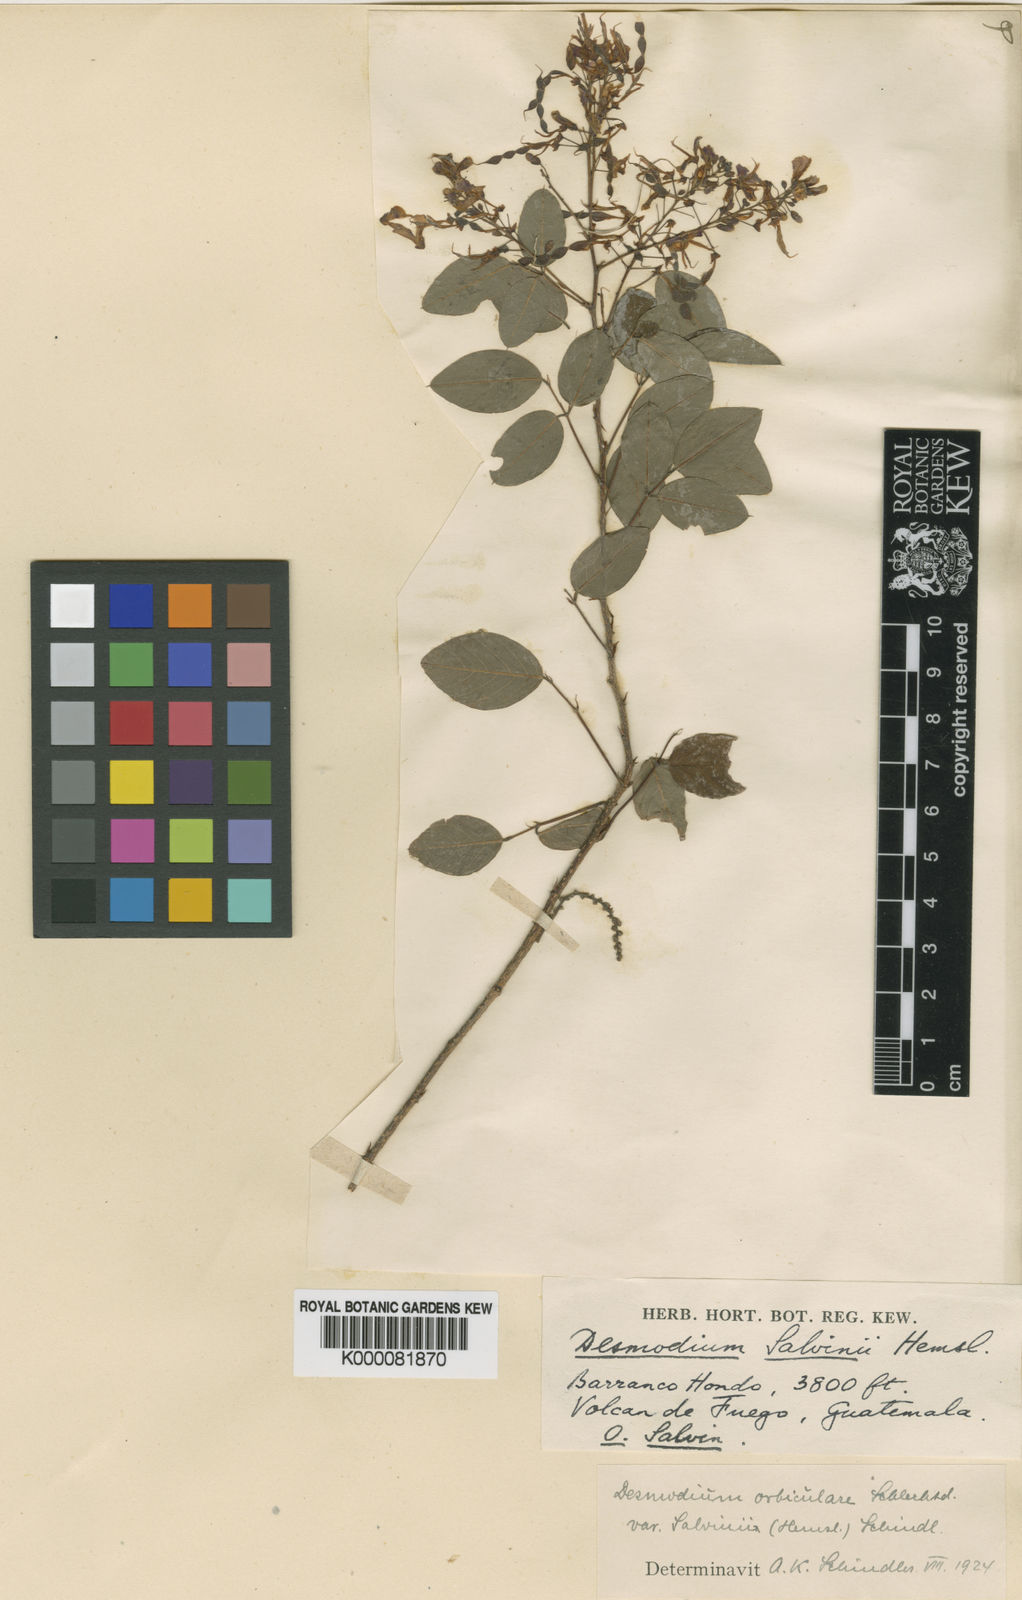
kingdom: Plantae
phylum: Tracheophyta
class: Magnoliopsida
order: Fabales
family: Fabaceae
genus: Desmodium
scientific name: Desmodium orbiculare
